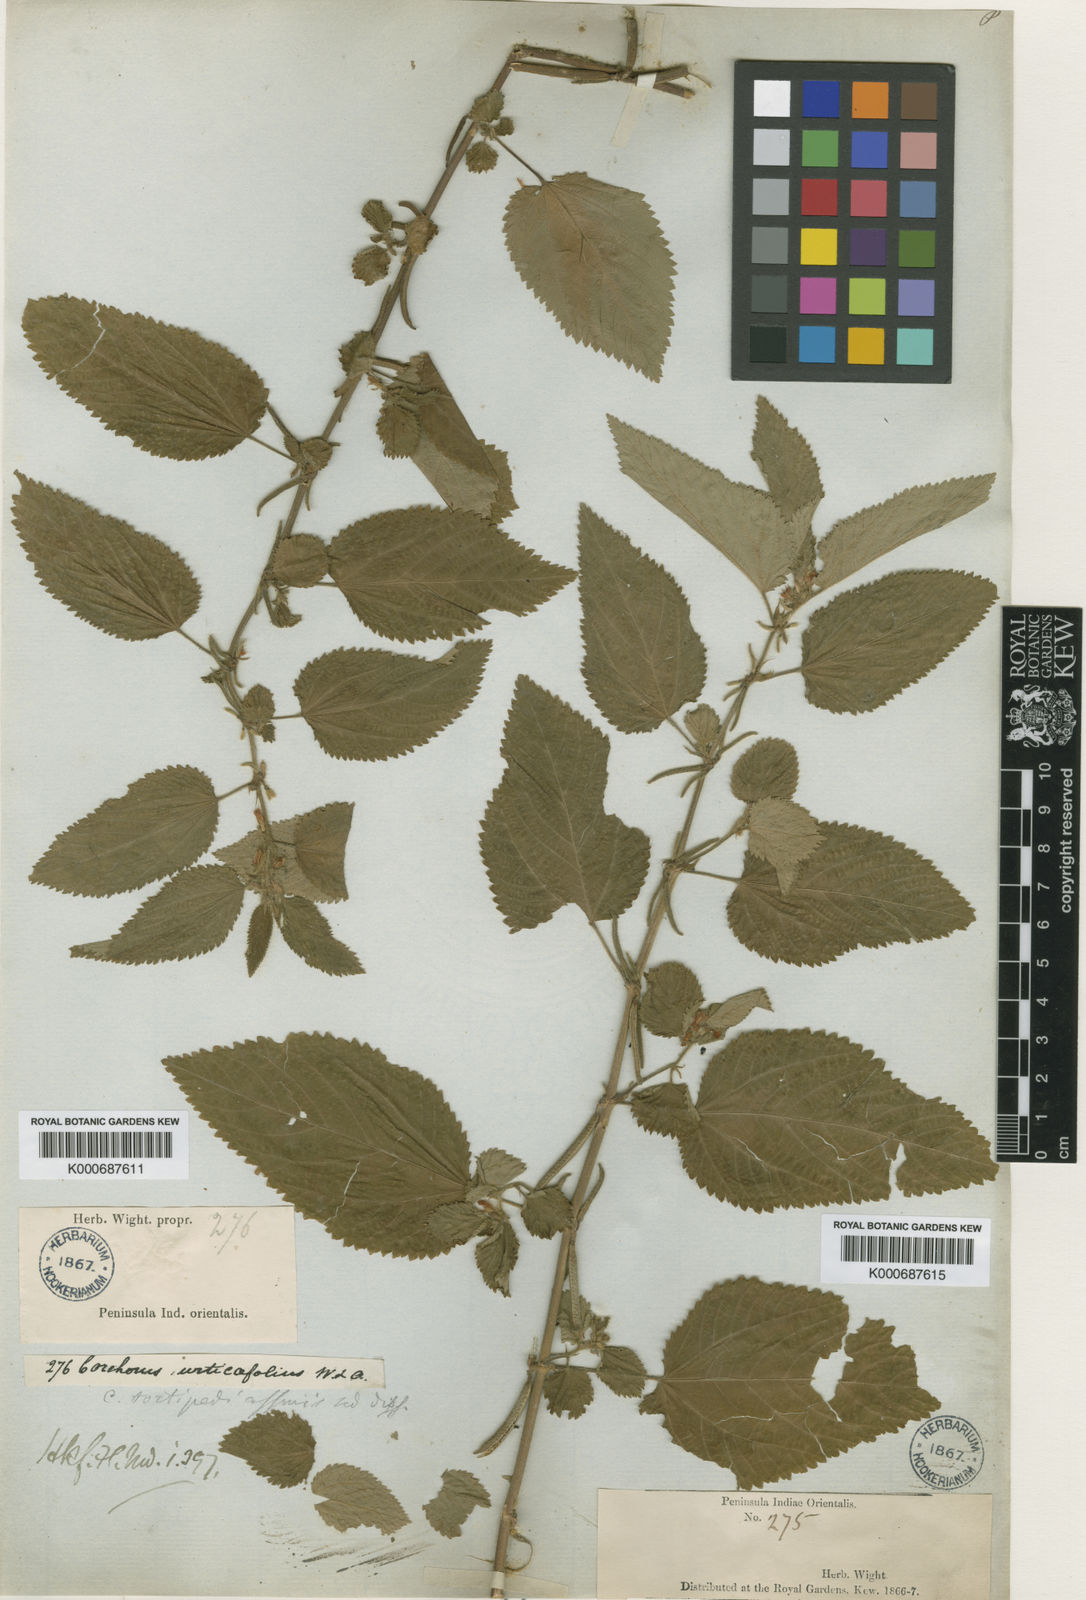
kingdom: Plantae
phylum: Tracheophyta
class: Magnoliopsida
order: Malvales
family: Malvaceae
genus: Corchorus
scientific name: Corchorus urticifolius
